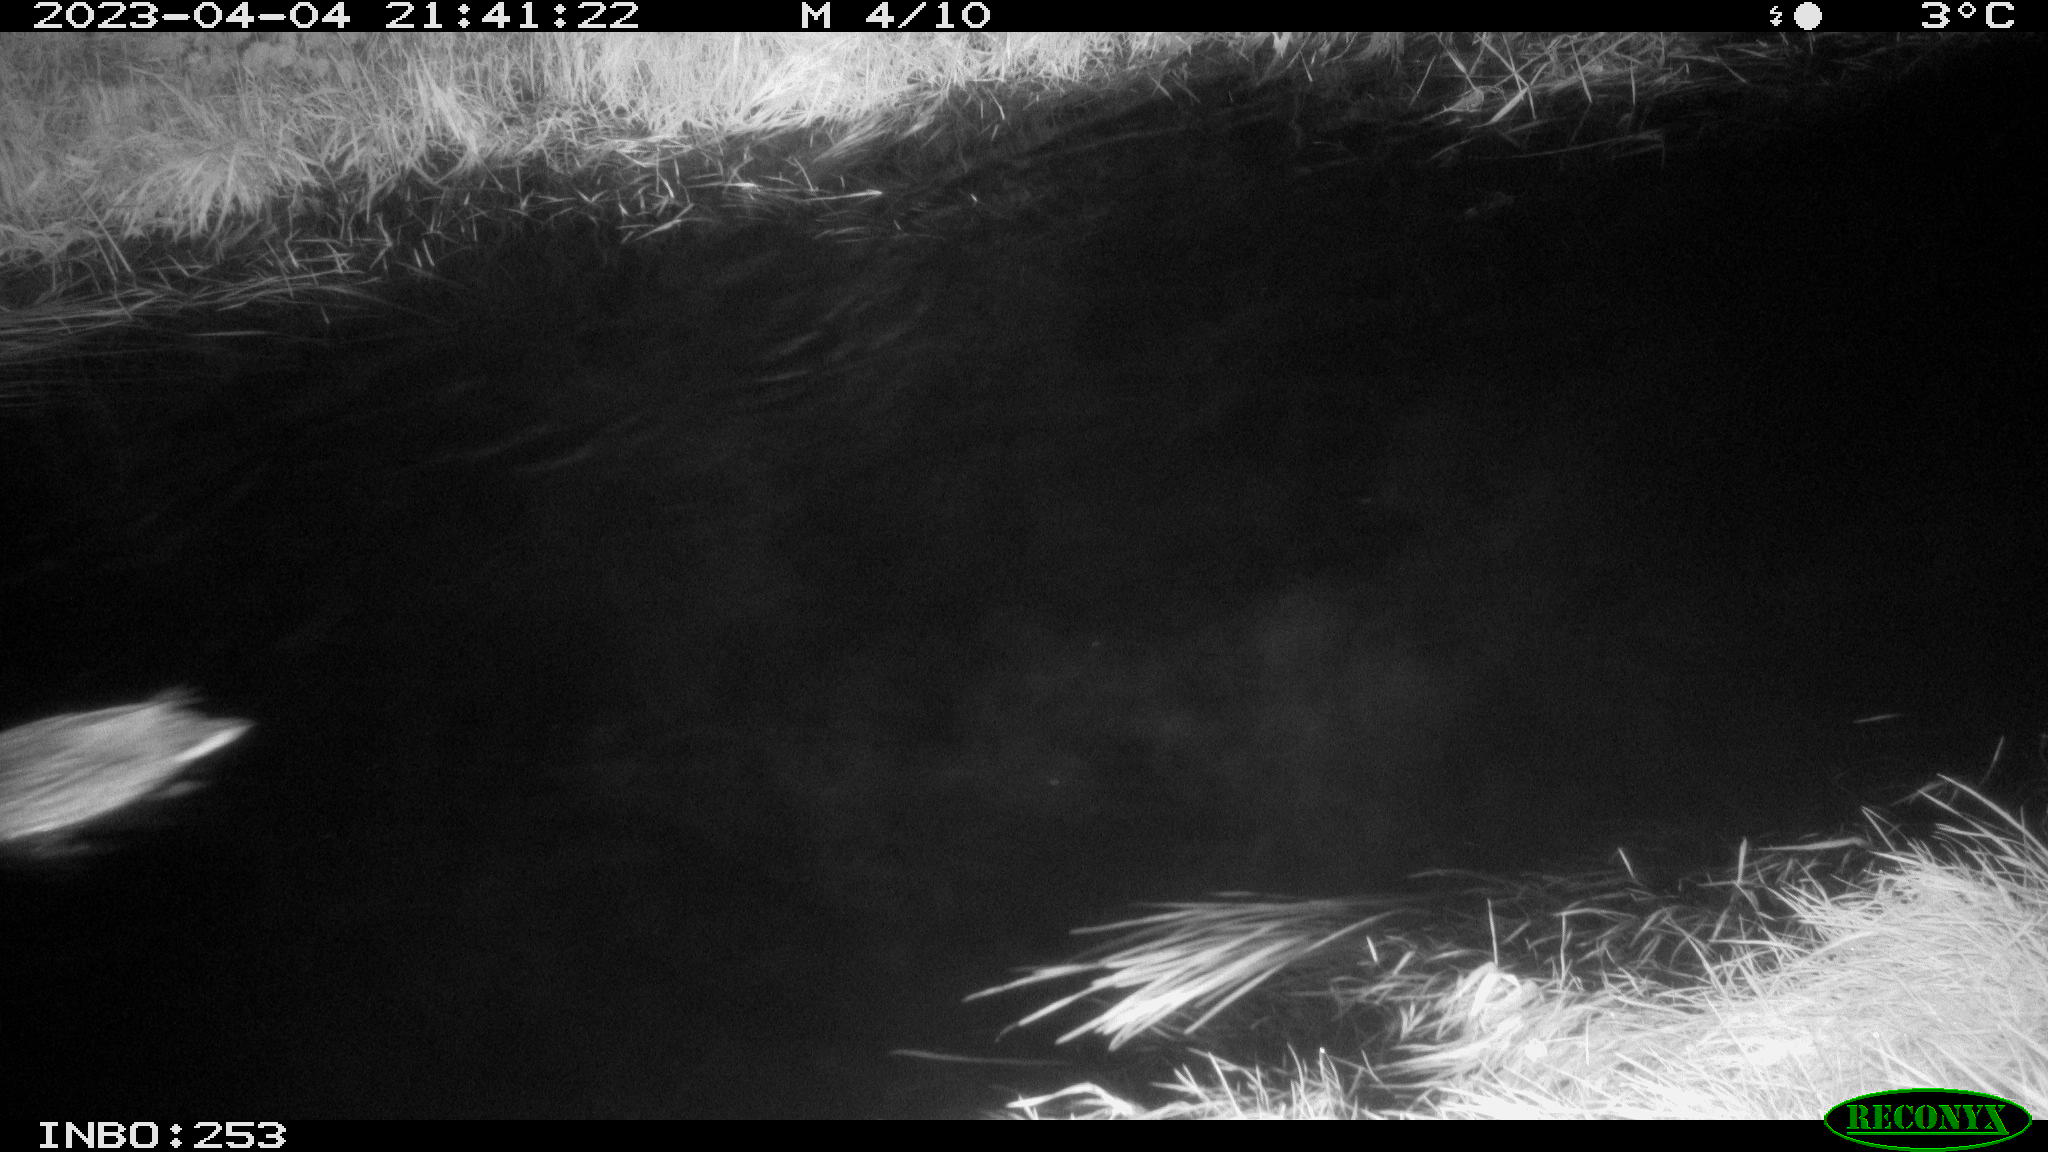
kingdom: Animalia
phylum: Chordata
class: Aves
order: Anseriformes
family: Anatidae
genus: Anas
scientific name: Anas
